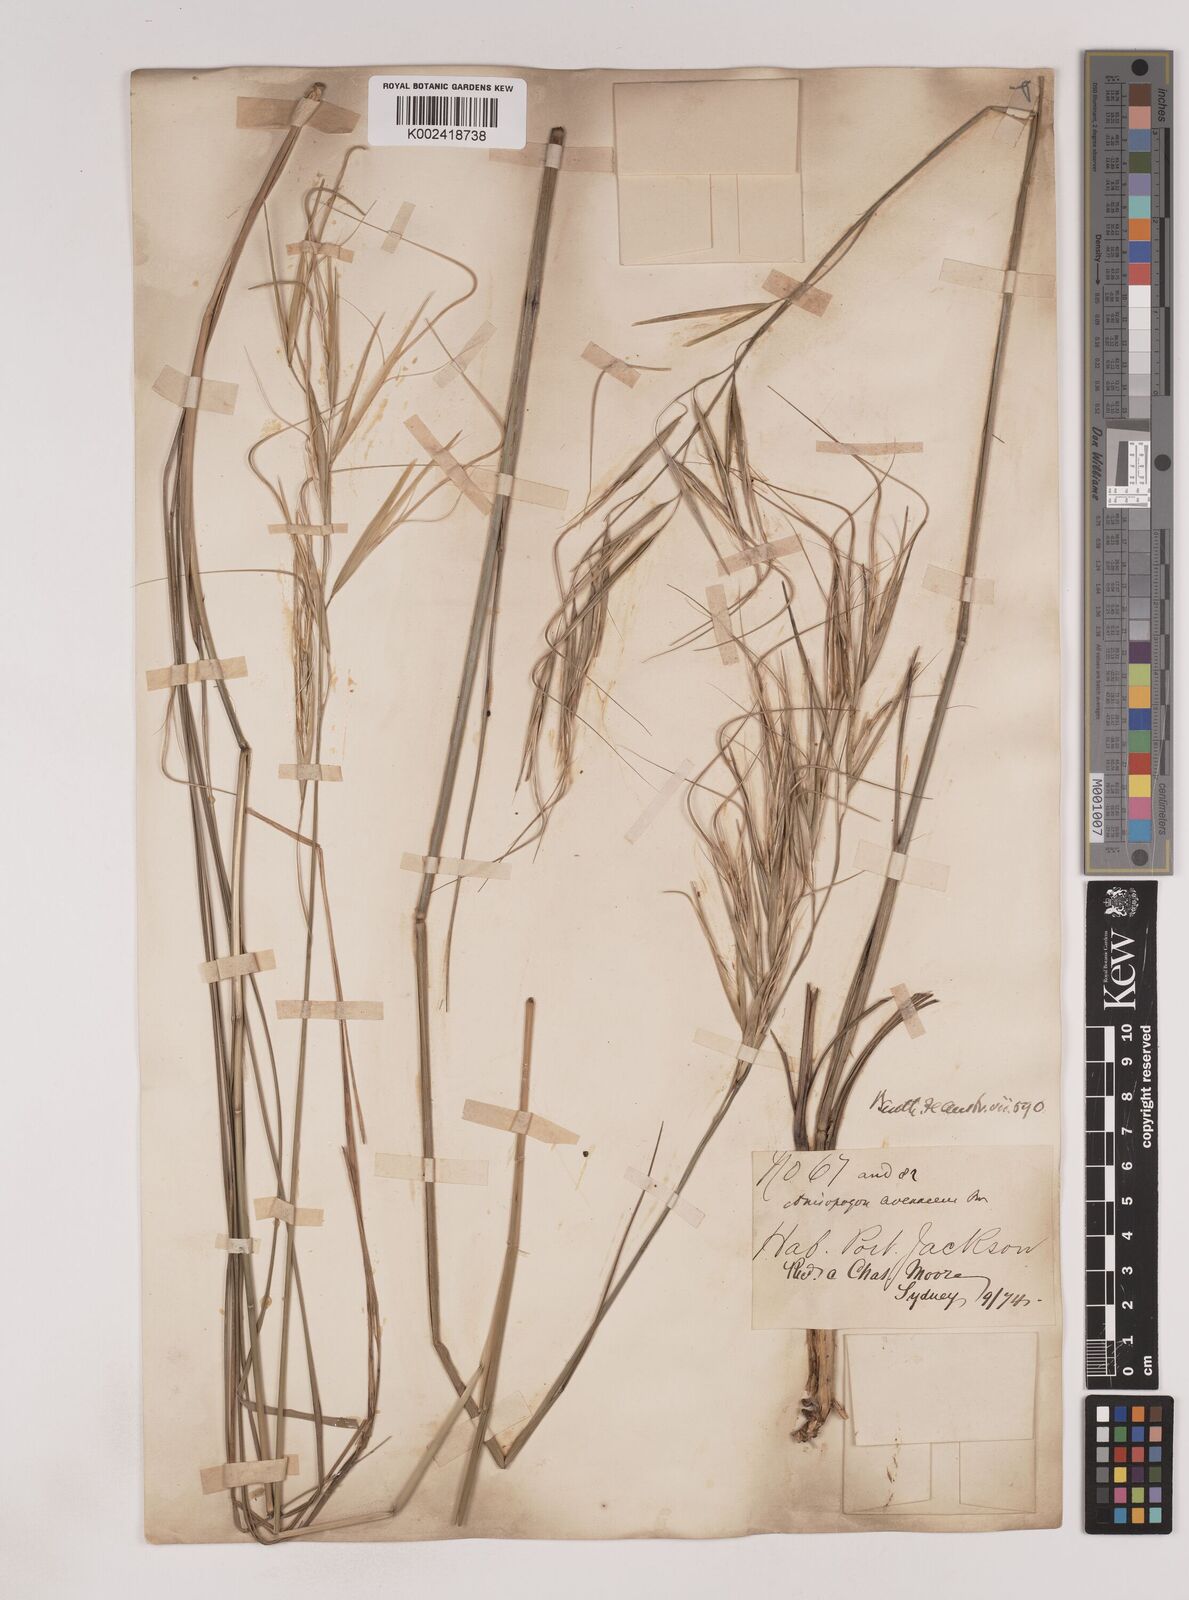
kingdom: Plantae
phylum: Tracheophyta
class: Liliopsida
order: Poales
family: Poaceae
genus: Anisopogon
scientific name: Anisopogon avenaceus
